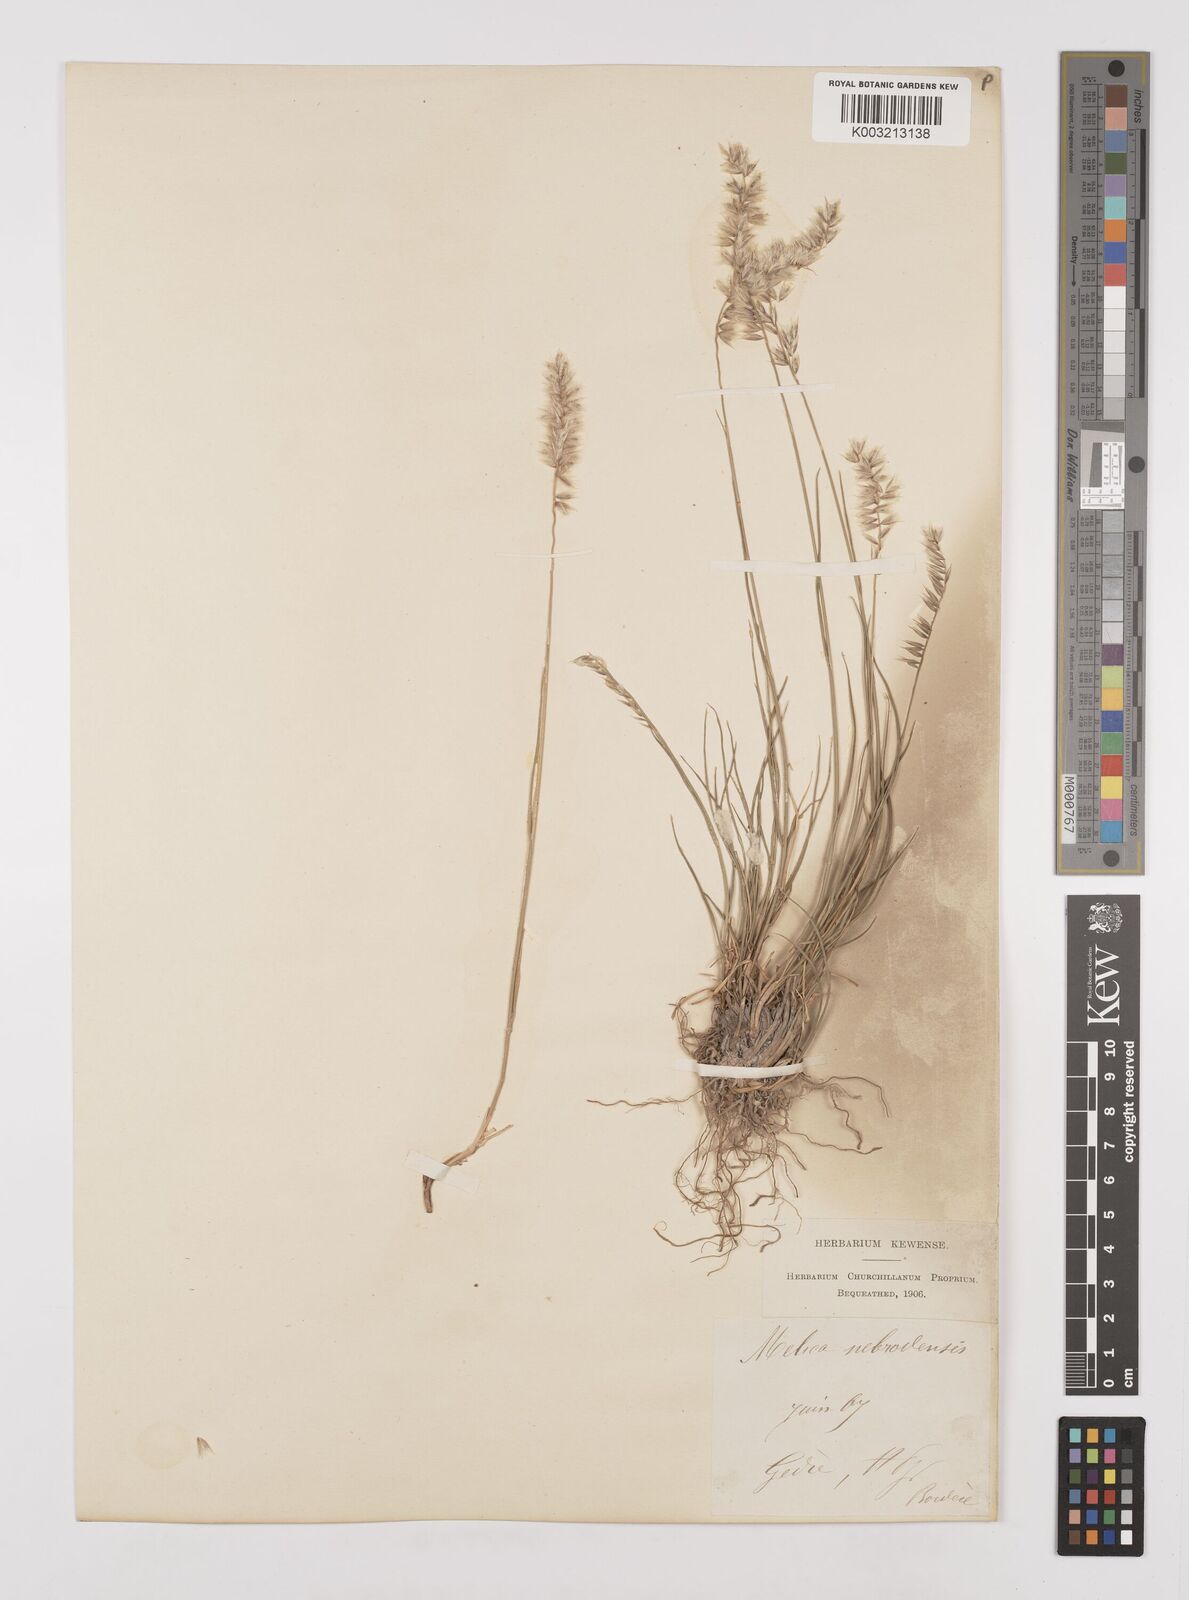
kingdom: Plantae
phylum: Tracheophyta
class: Liliopsida
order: Poales
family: Poaceae
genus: Melica
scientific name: Melica ciliata
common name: Hairy melicgrass
